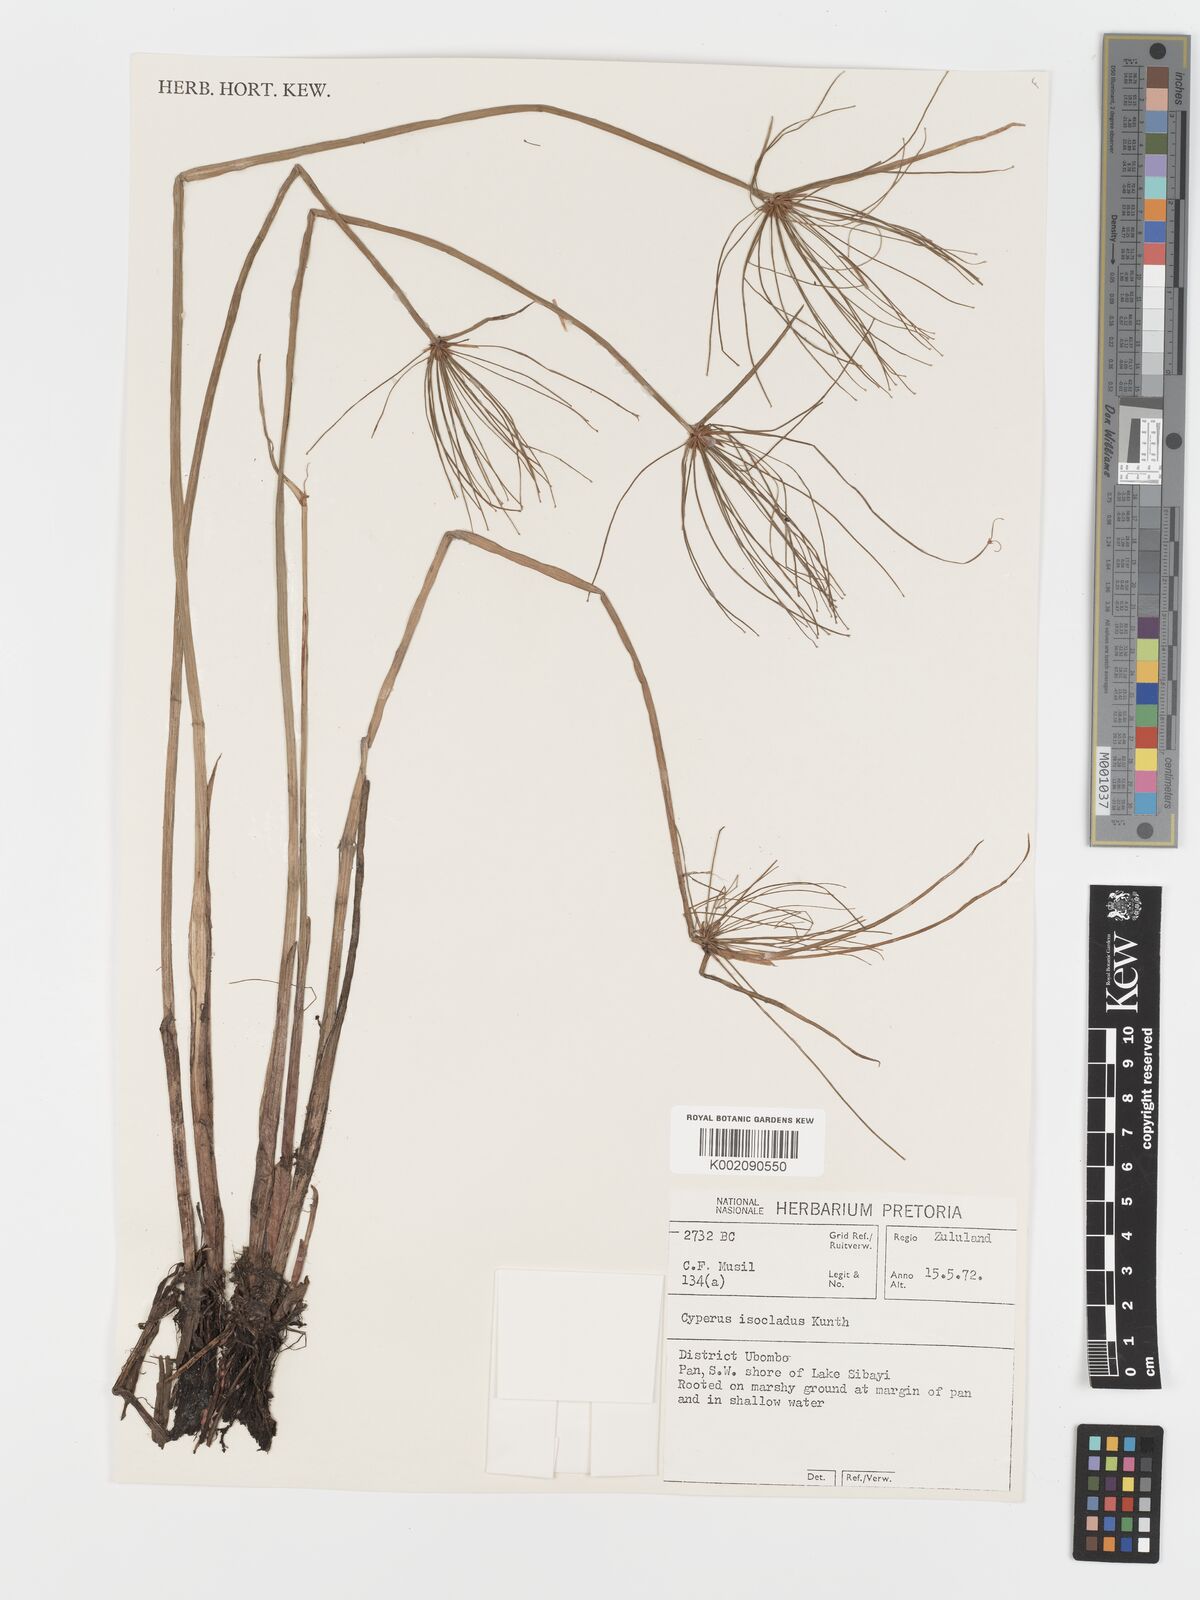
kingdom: Plantae
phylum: Tracheophyta
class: Liliopsida
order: Poales
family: Cyperaceae
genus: Cyperus
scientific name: Cyperus prolifer
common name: Miniature flatsedge
